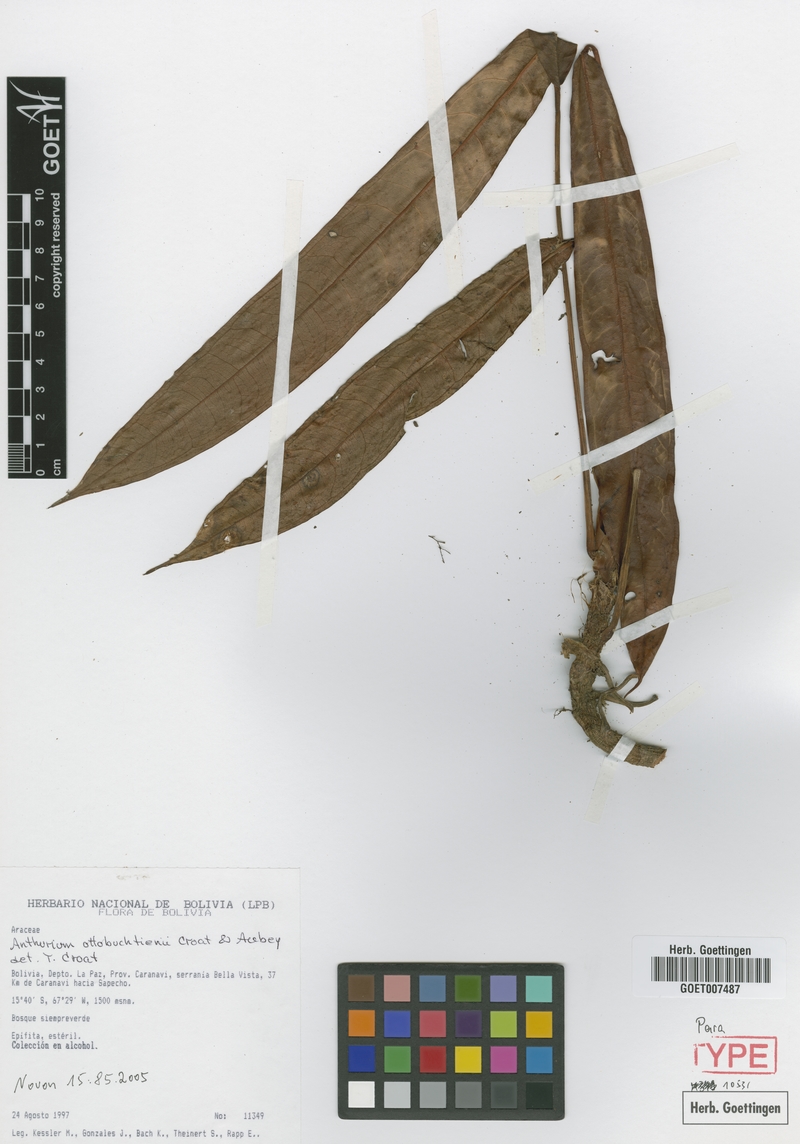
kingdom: Plantae
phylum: Tracheophyta
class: Liliopsida
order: Alismatales
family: Araceae
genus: Anthurium
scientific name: Anthurium ottobuchtienii
